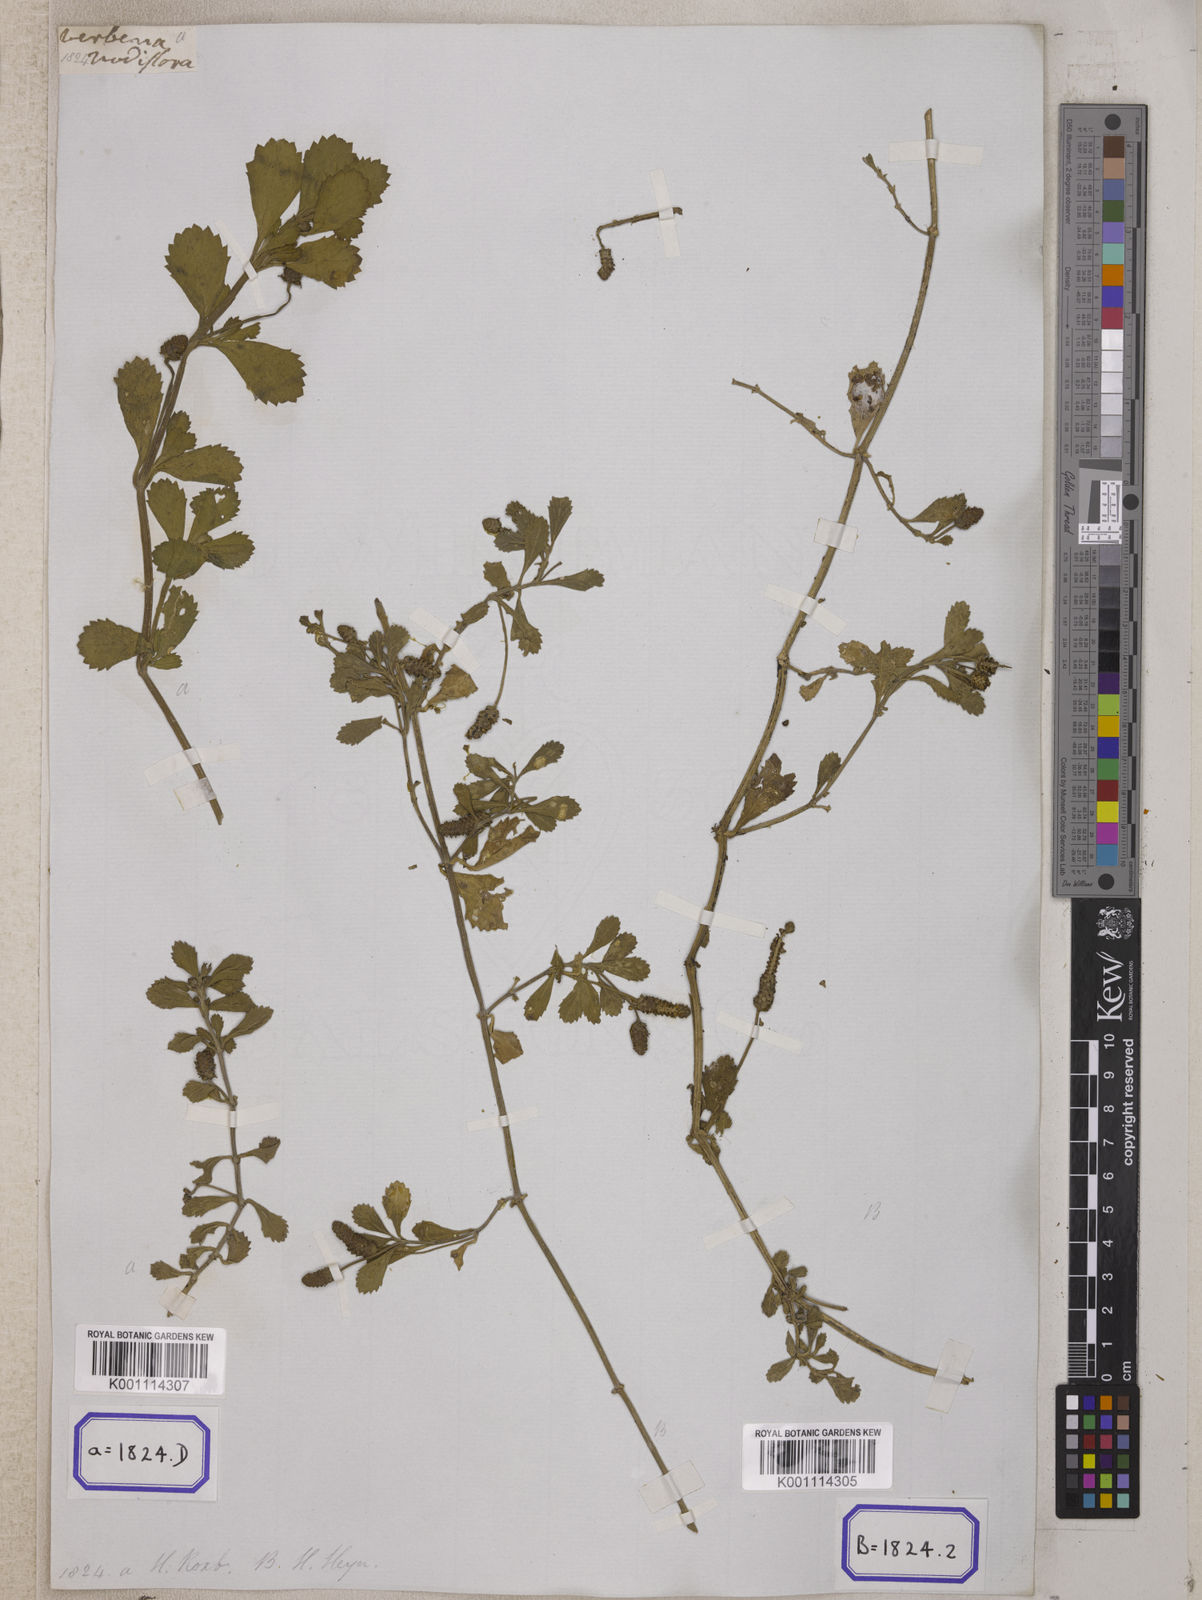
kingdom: Plantae
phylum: Tracheophyta
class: Magnoliopsida
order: Lamiales
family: Verbenaceae
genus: Phyla
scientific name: Phyla nodiflora
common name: Frogfruit
